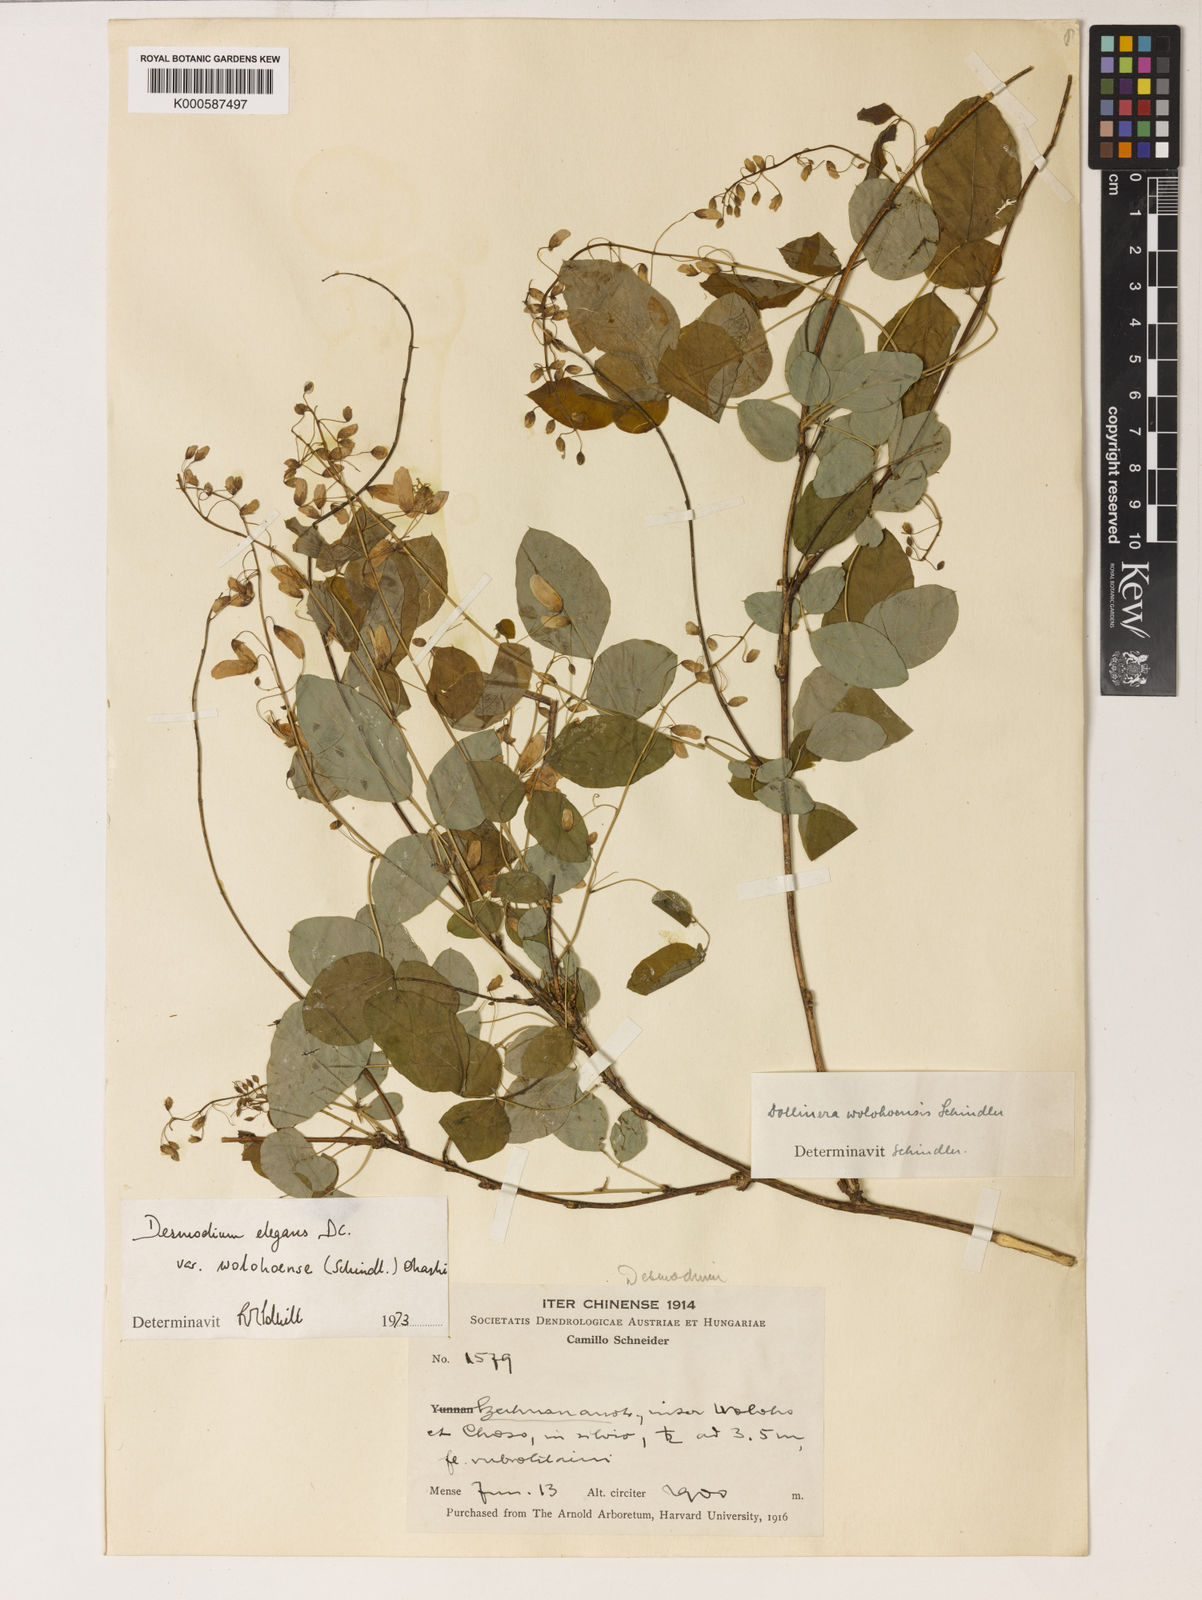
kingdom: Plantae
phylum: Tracheophyta
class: Magnoliopsida
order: Fabales
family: Fabaceae
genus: Sunhangia
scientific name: Sunhangia wolohoensis
